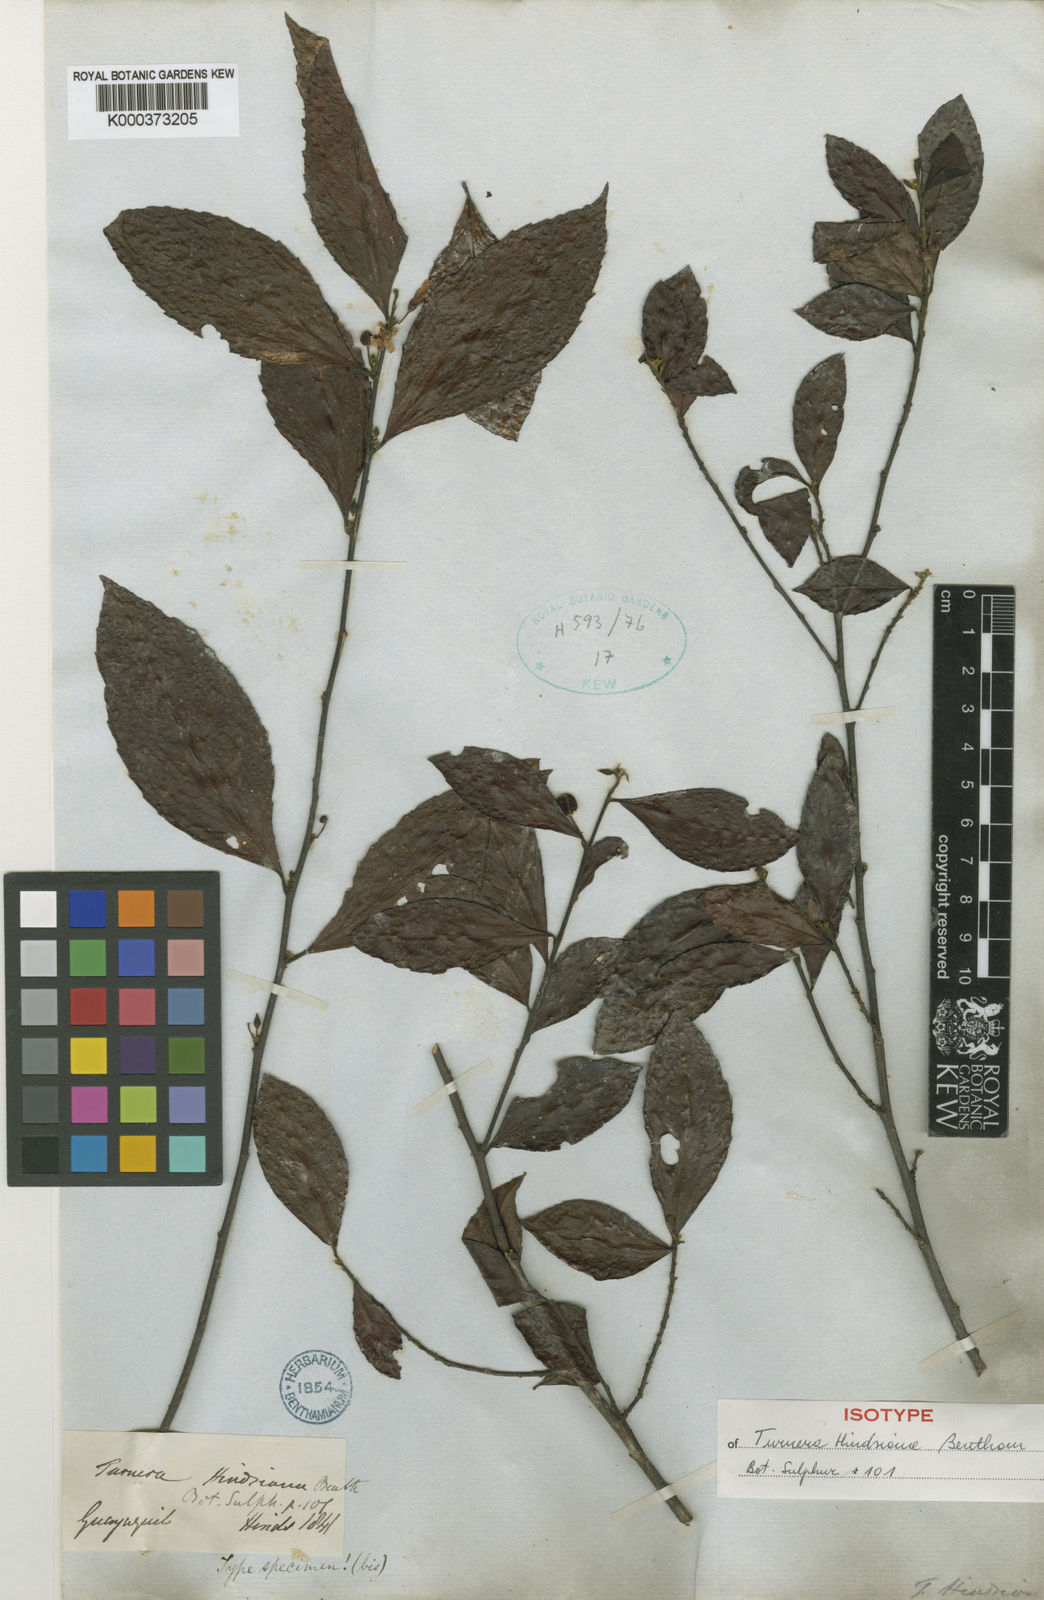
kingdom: Plantae
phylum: Tracheophyta
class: Magnoliopsida
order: Malpighiales
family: Turneraceae
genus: Turnera
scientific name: Turnera hindsiana
